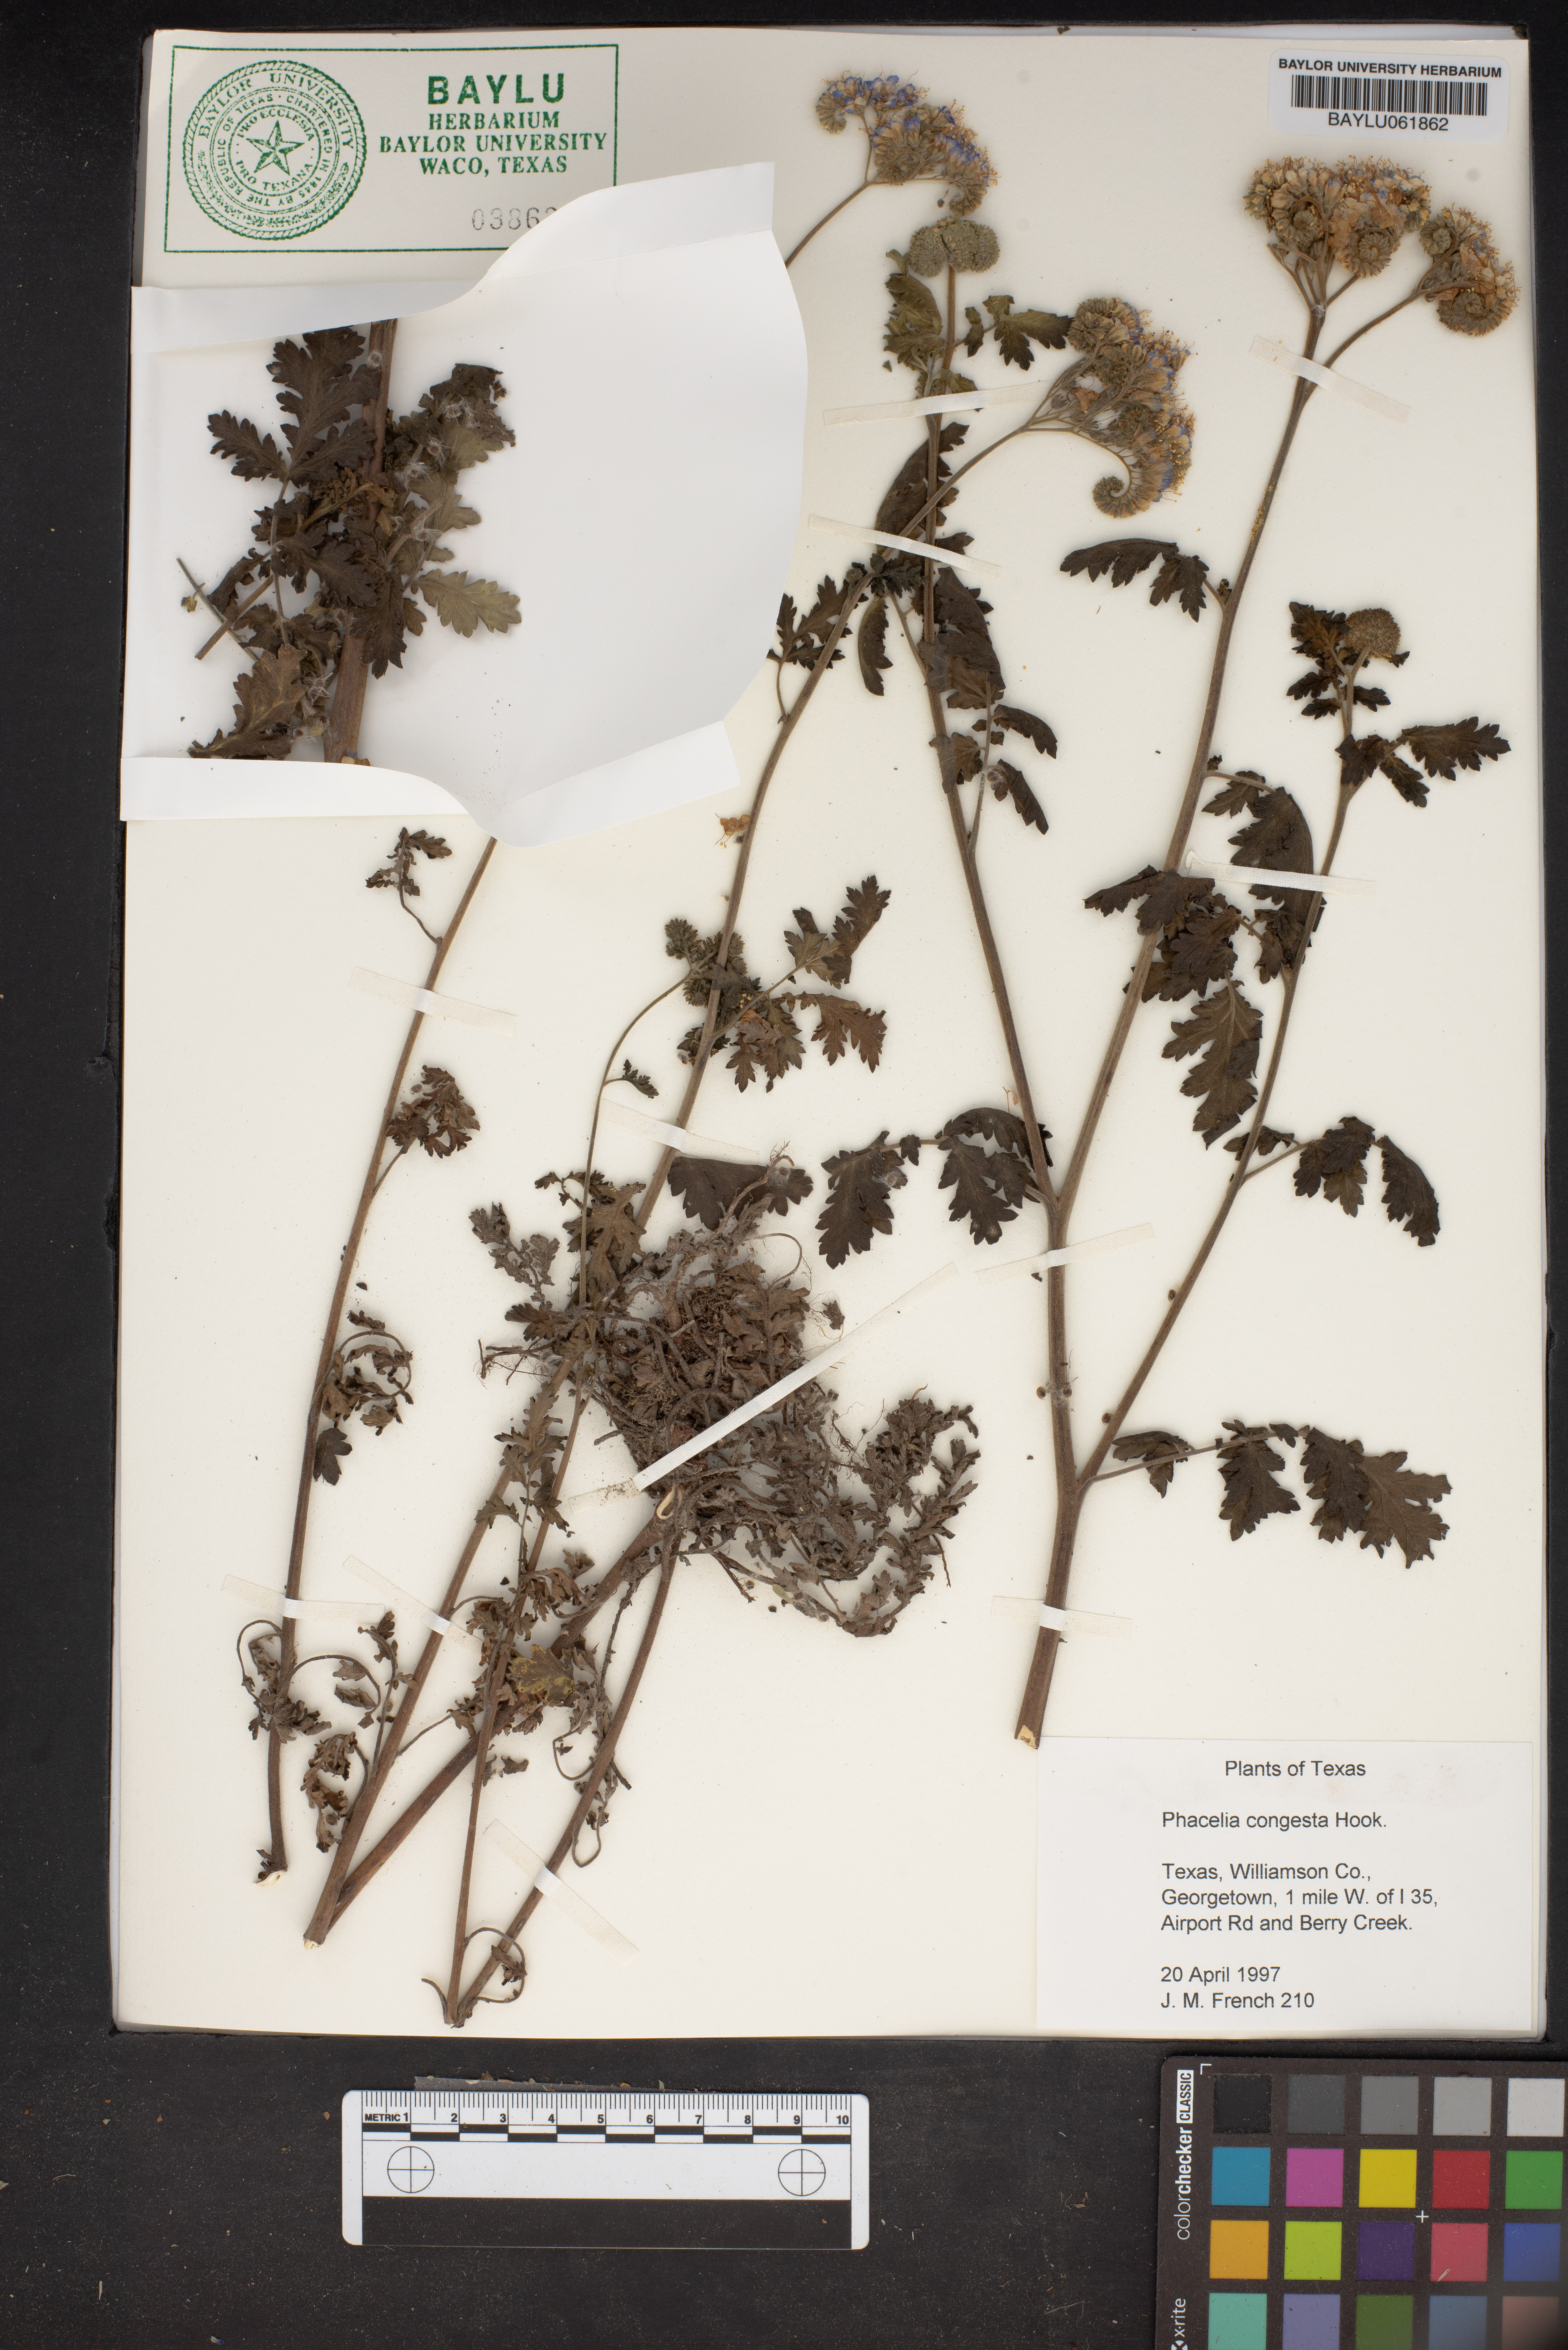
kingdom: Plantae
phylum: Tracheophyta
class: Magnoliopsida
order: Boraginales
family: Hydrophyllaceae
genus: Phacelia
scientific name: Phacelia congesta
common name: Blue curls
